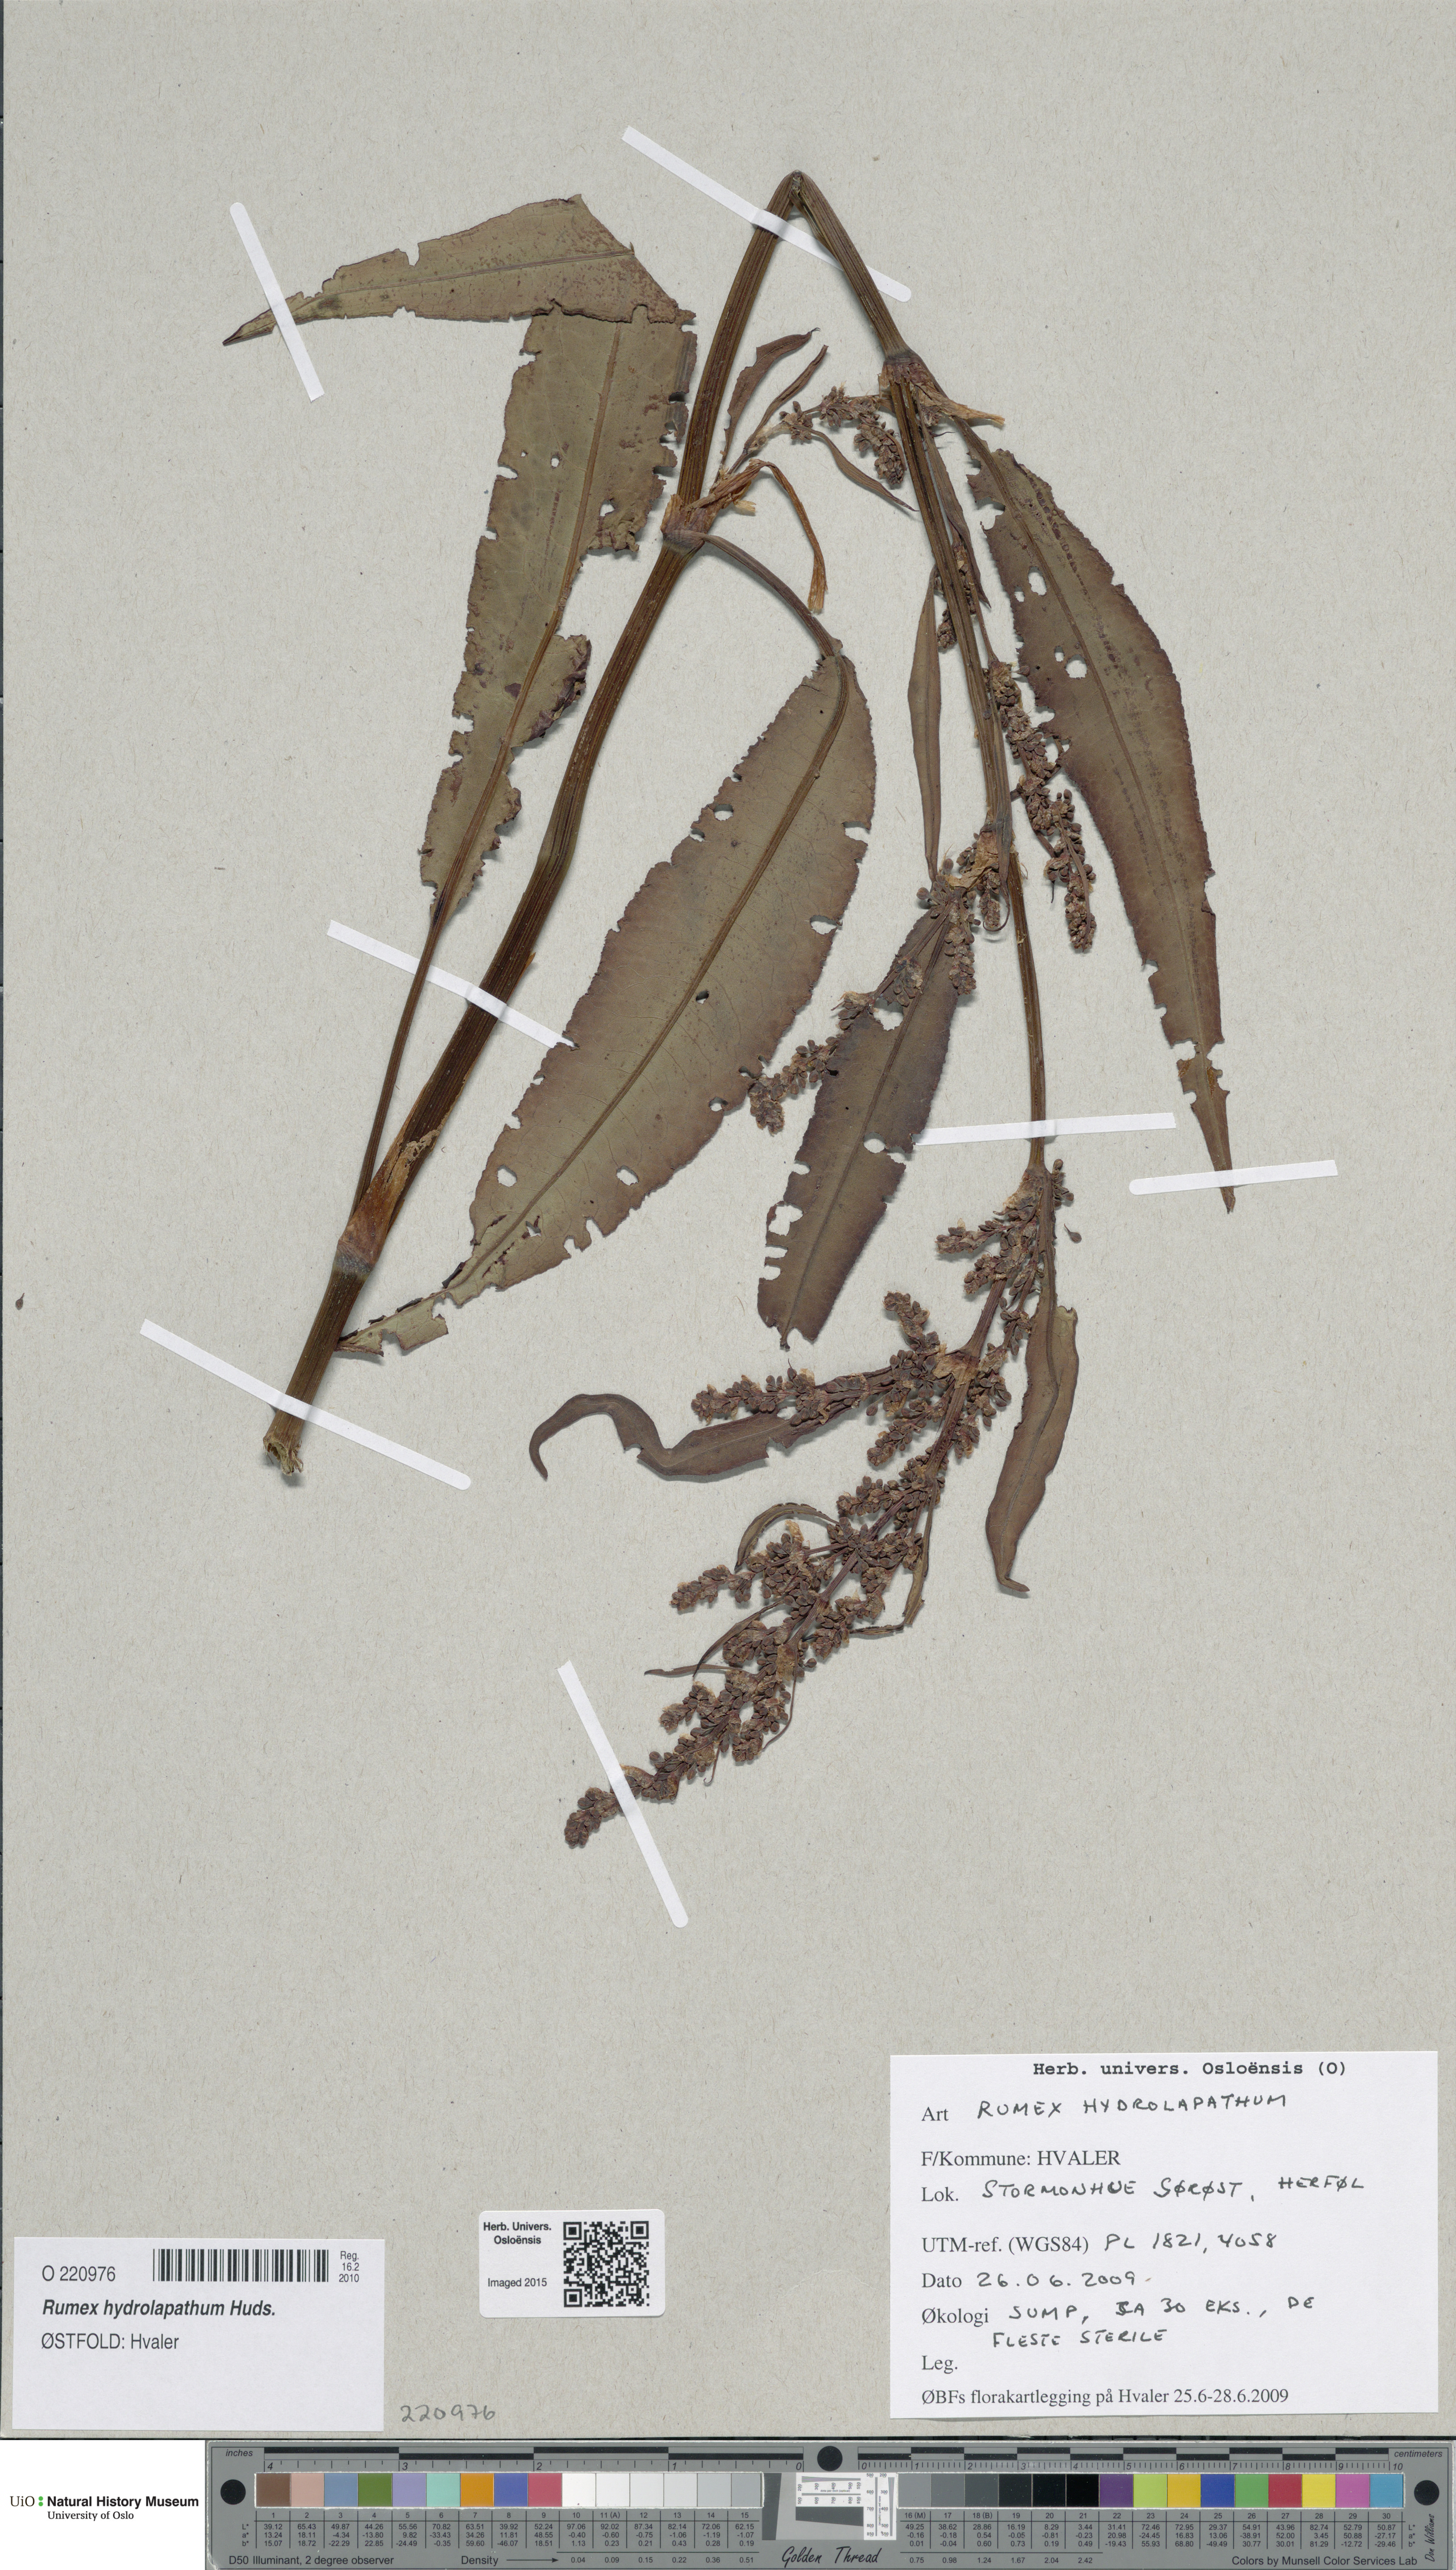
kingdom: Plantae
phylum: Tracheophyta
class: Magnoliopsida
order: Caryophyllales
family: Polygonaceae
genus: Rumex
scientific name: Rumex hydrolapathum
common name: Water dock
